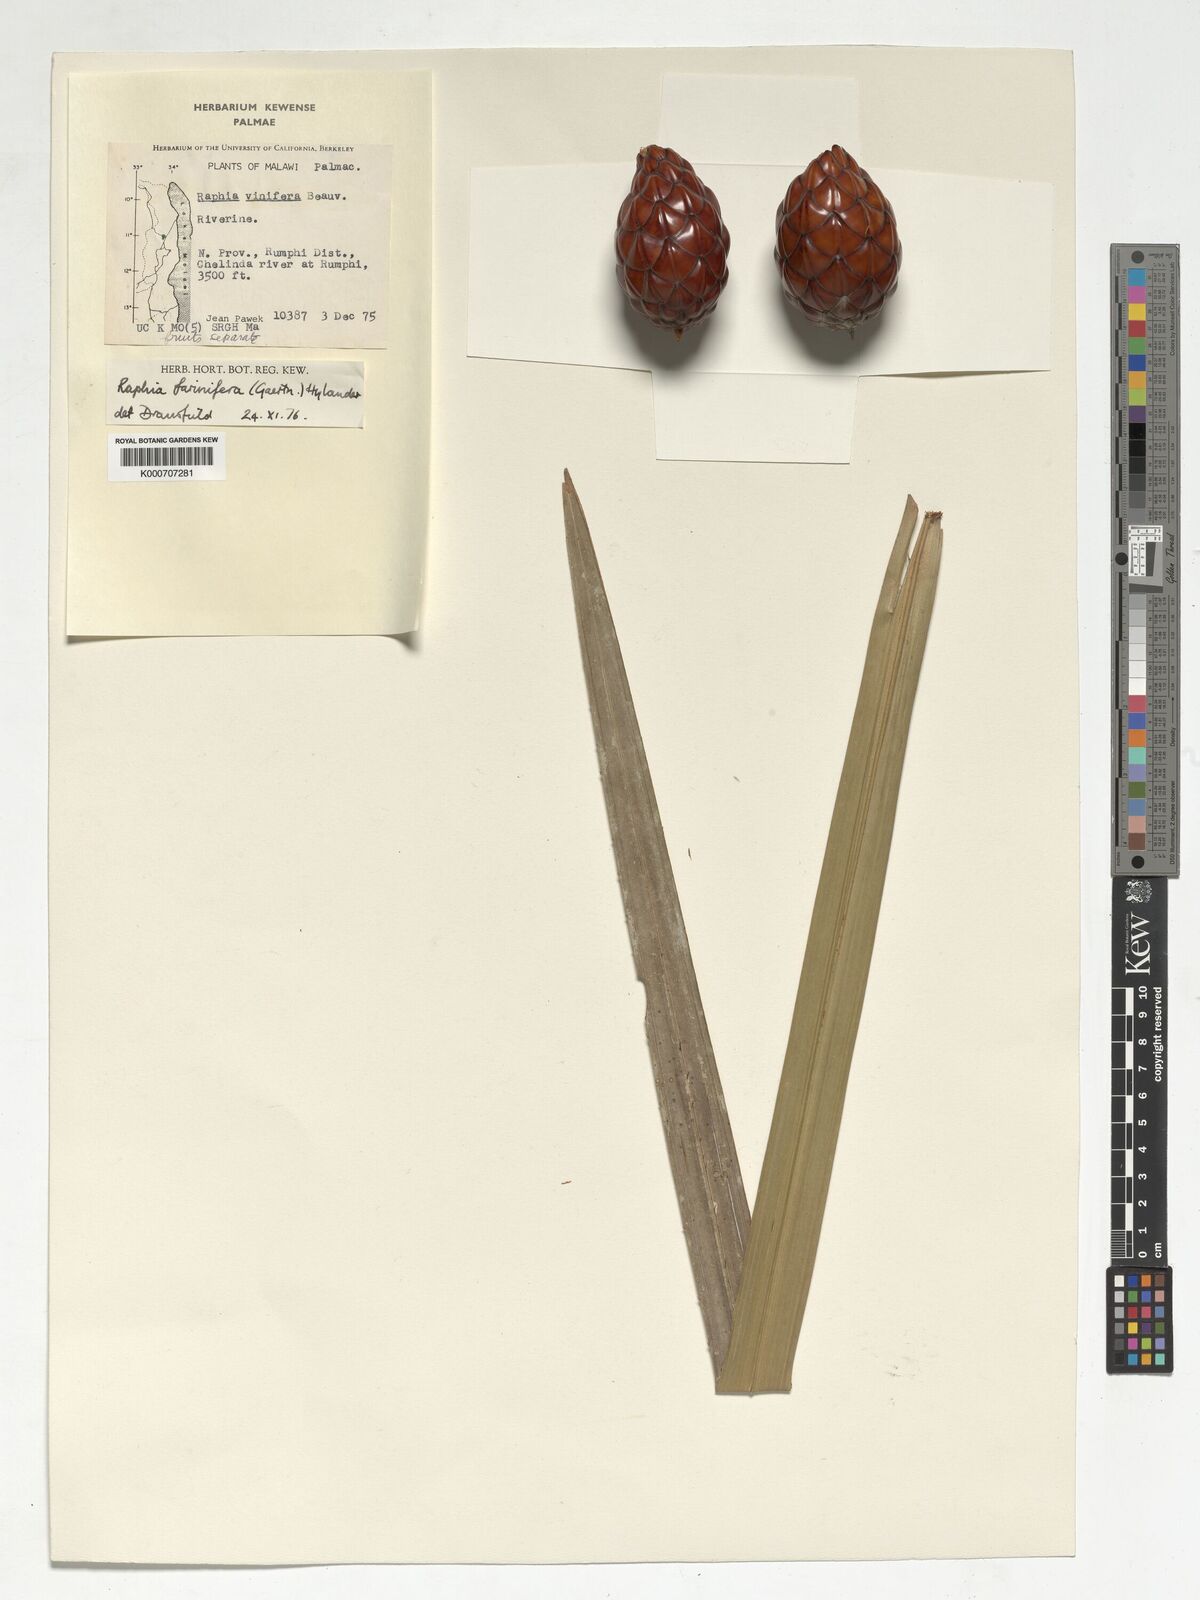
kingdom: Plantae
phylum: Tracheophyta
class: Liliopsida
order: Arecales
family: Arecaceae
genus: Raphia
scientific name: Raphia farinifera
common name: Raphia palm
